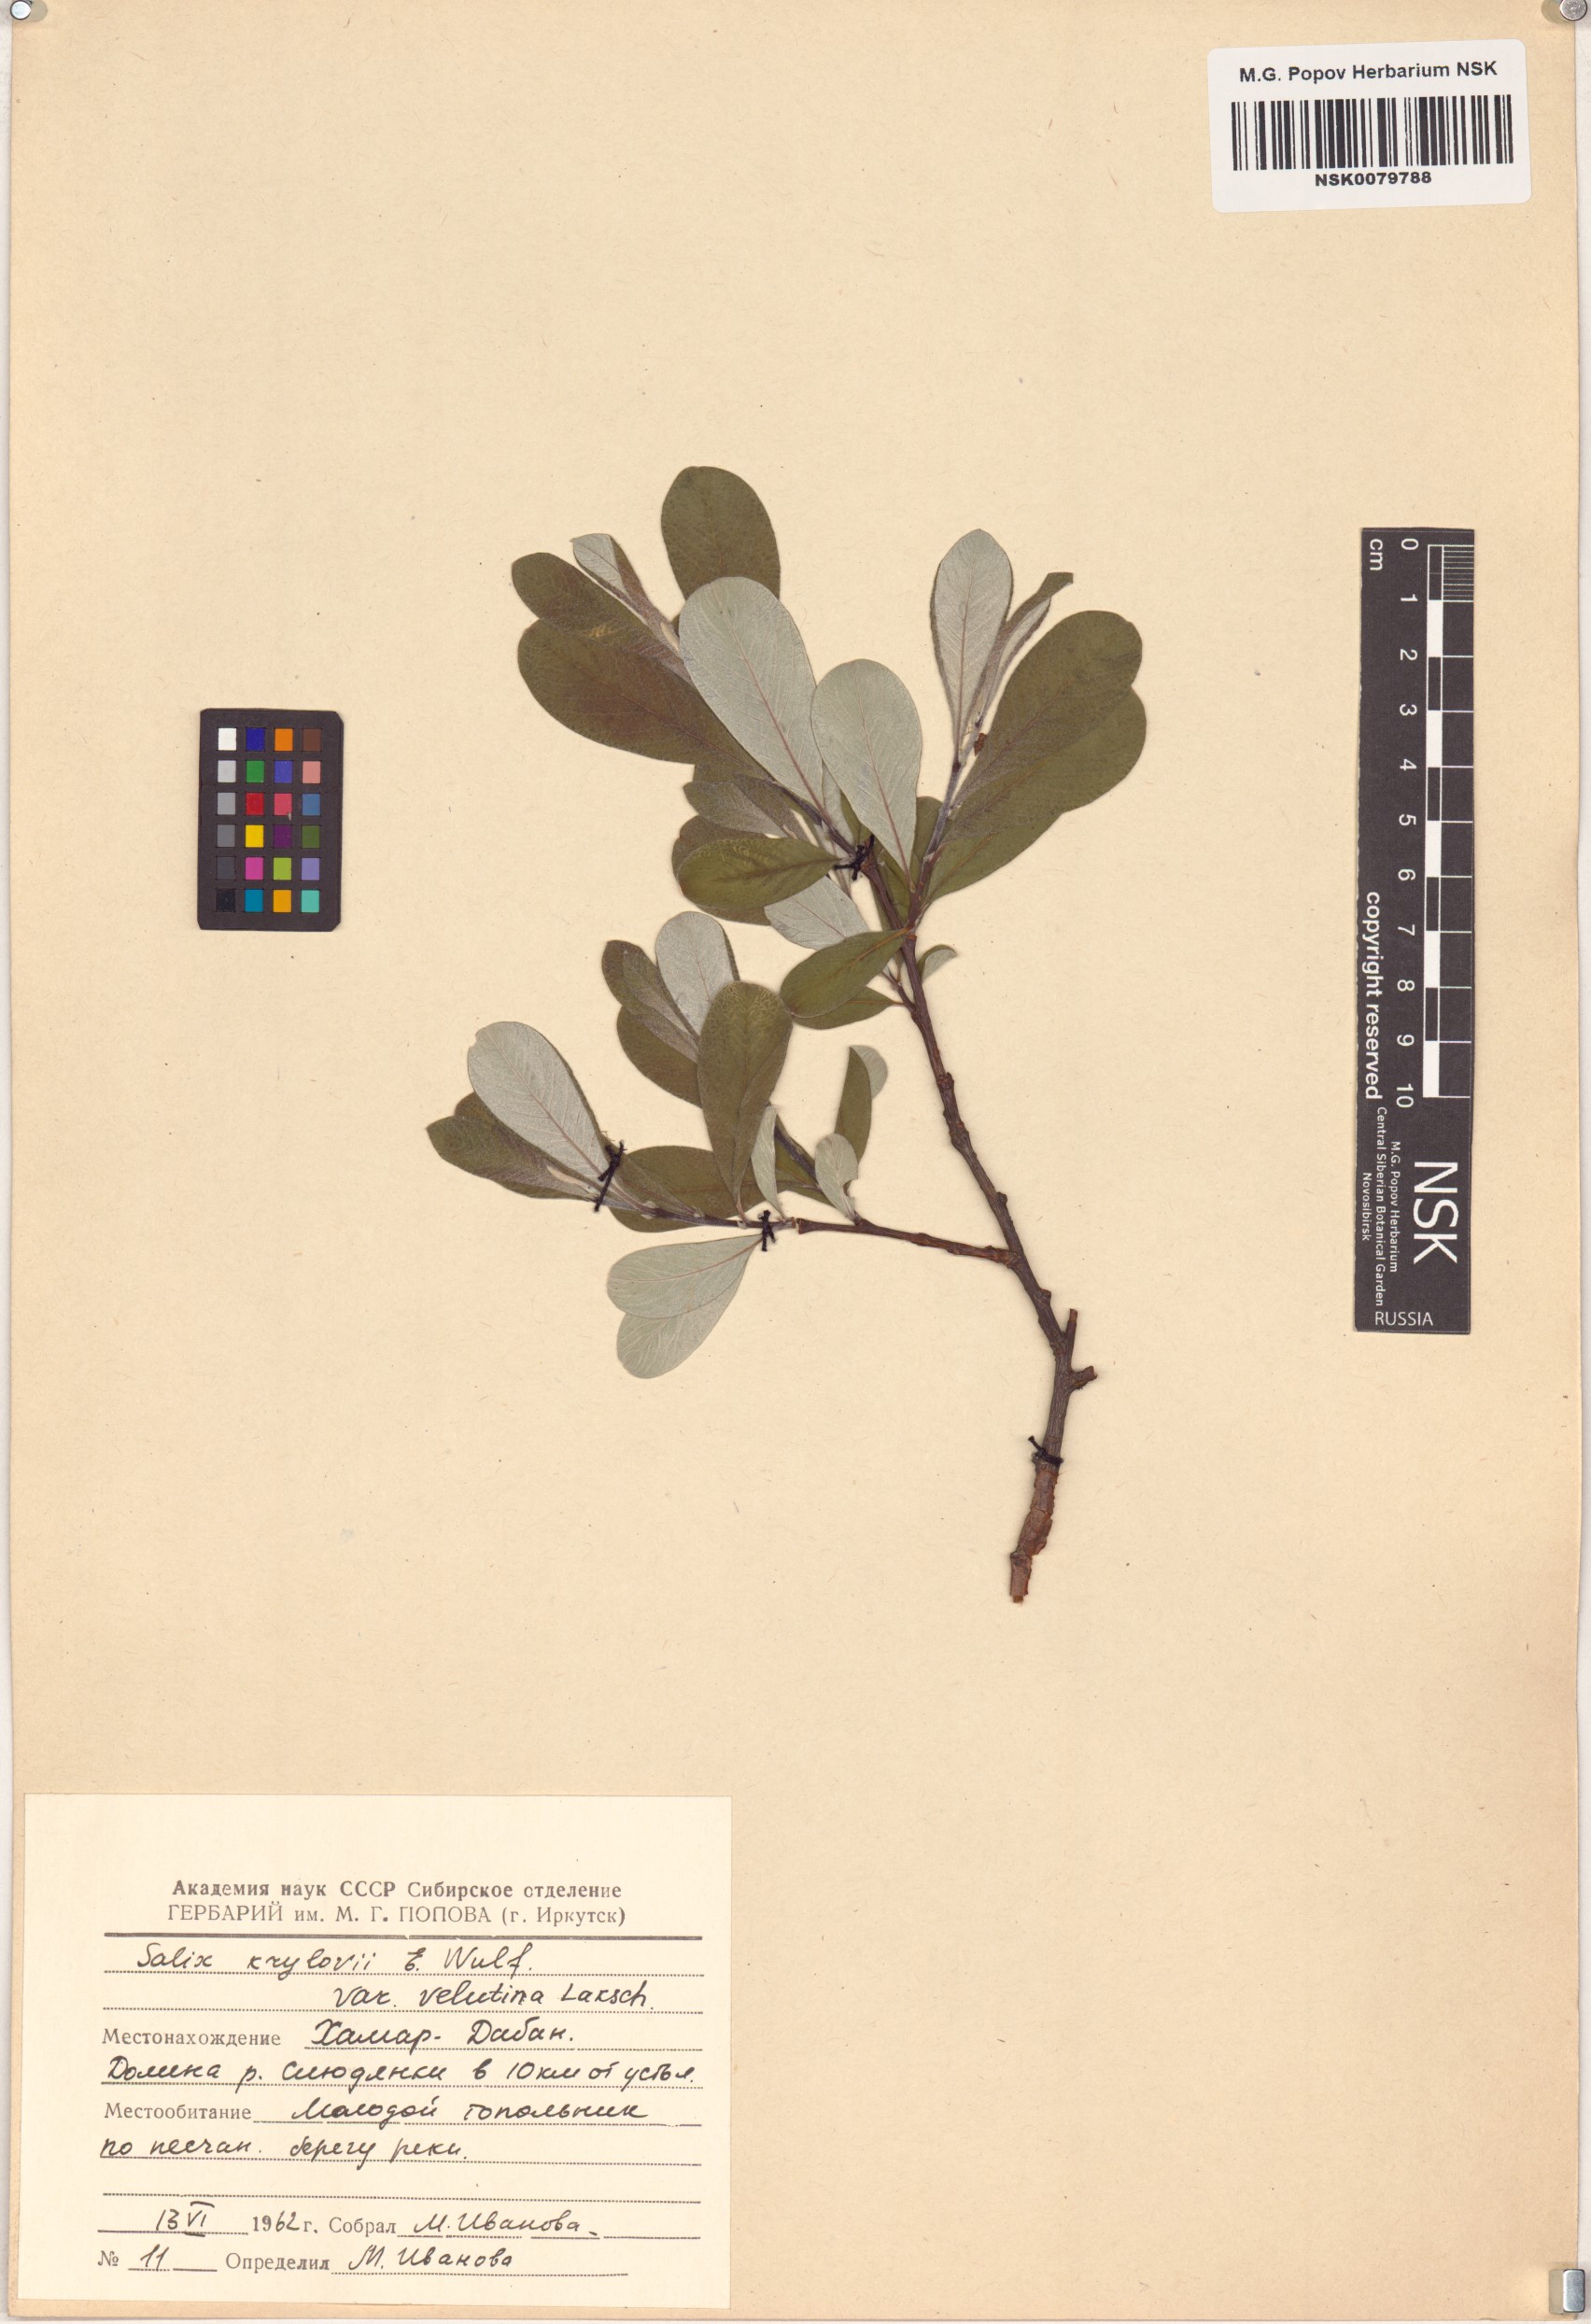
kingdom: Plantae
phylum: Tracheophyta
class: Magnoliopsida
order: Malpighiales
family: Salicaceae
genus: Salix
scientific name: Salix krylovii
